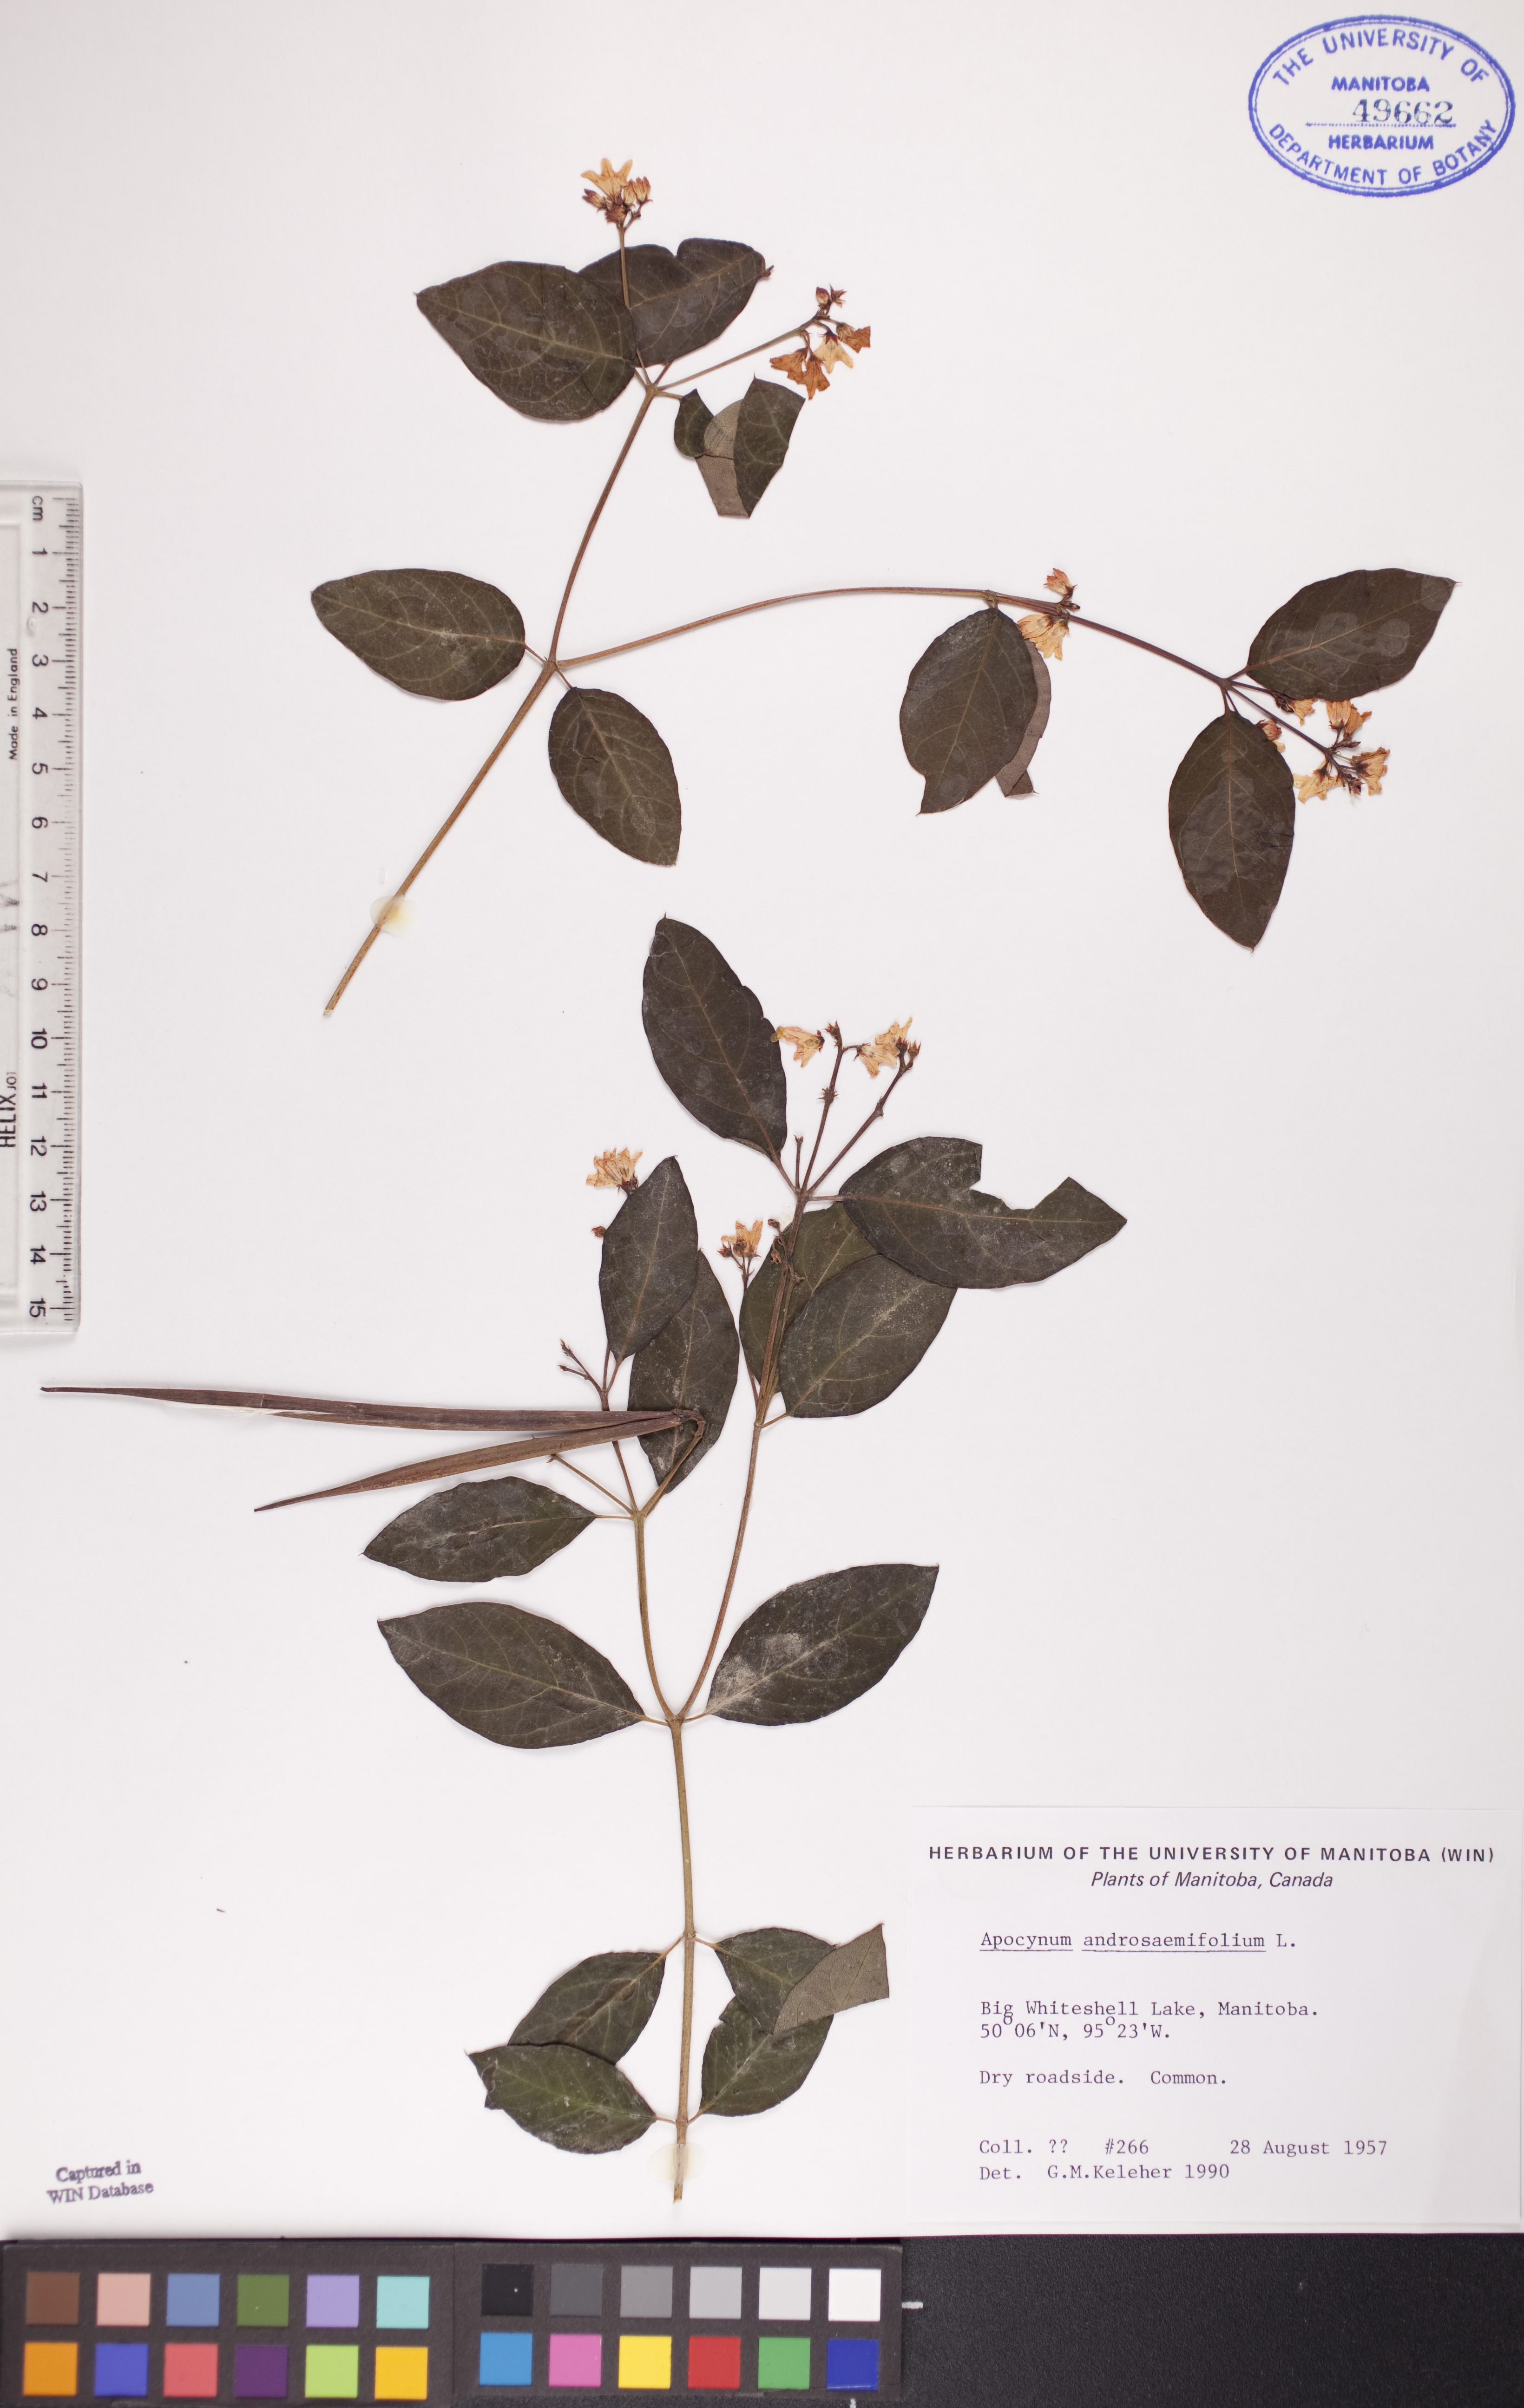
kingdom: Plantae
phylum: Tracheophyta
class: Magnoliopsida
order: Gentianales
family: Apocynaceae
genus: Apocynum
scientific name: Apocynum androsaemifolium
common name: Spreading dogbane
